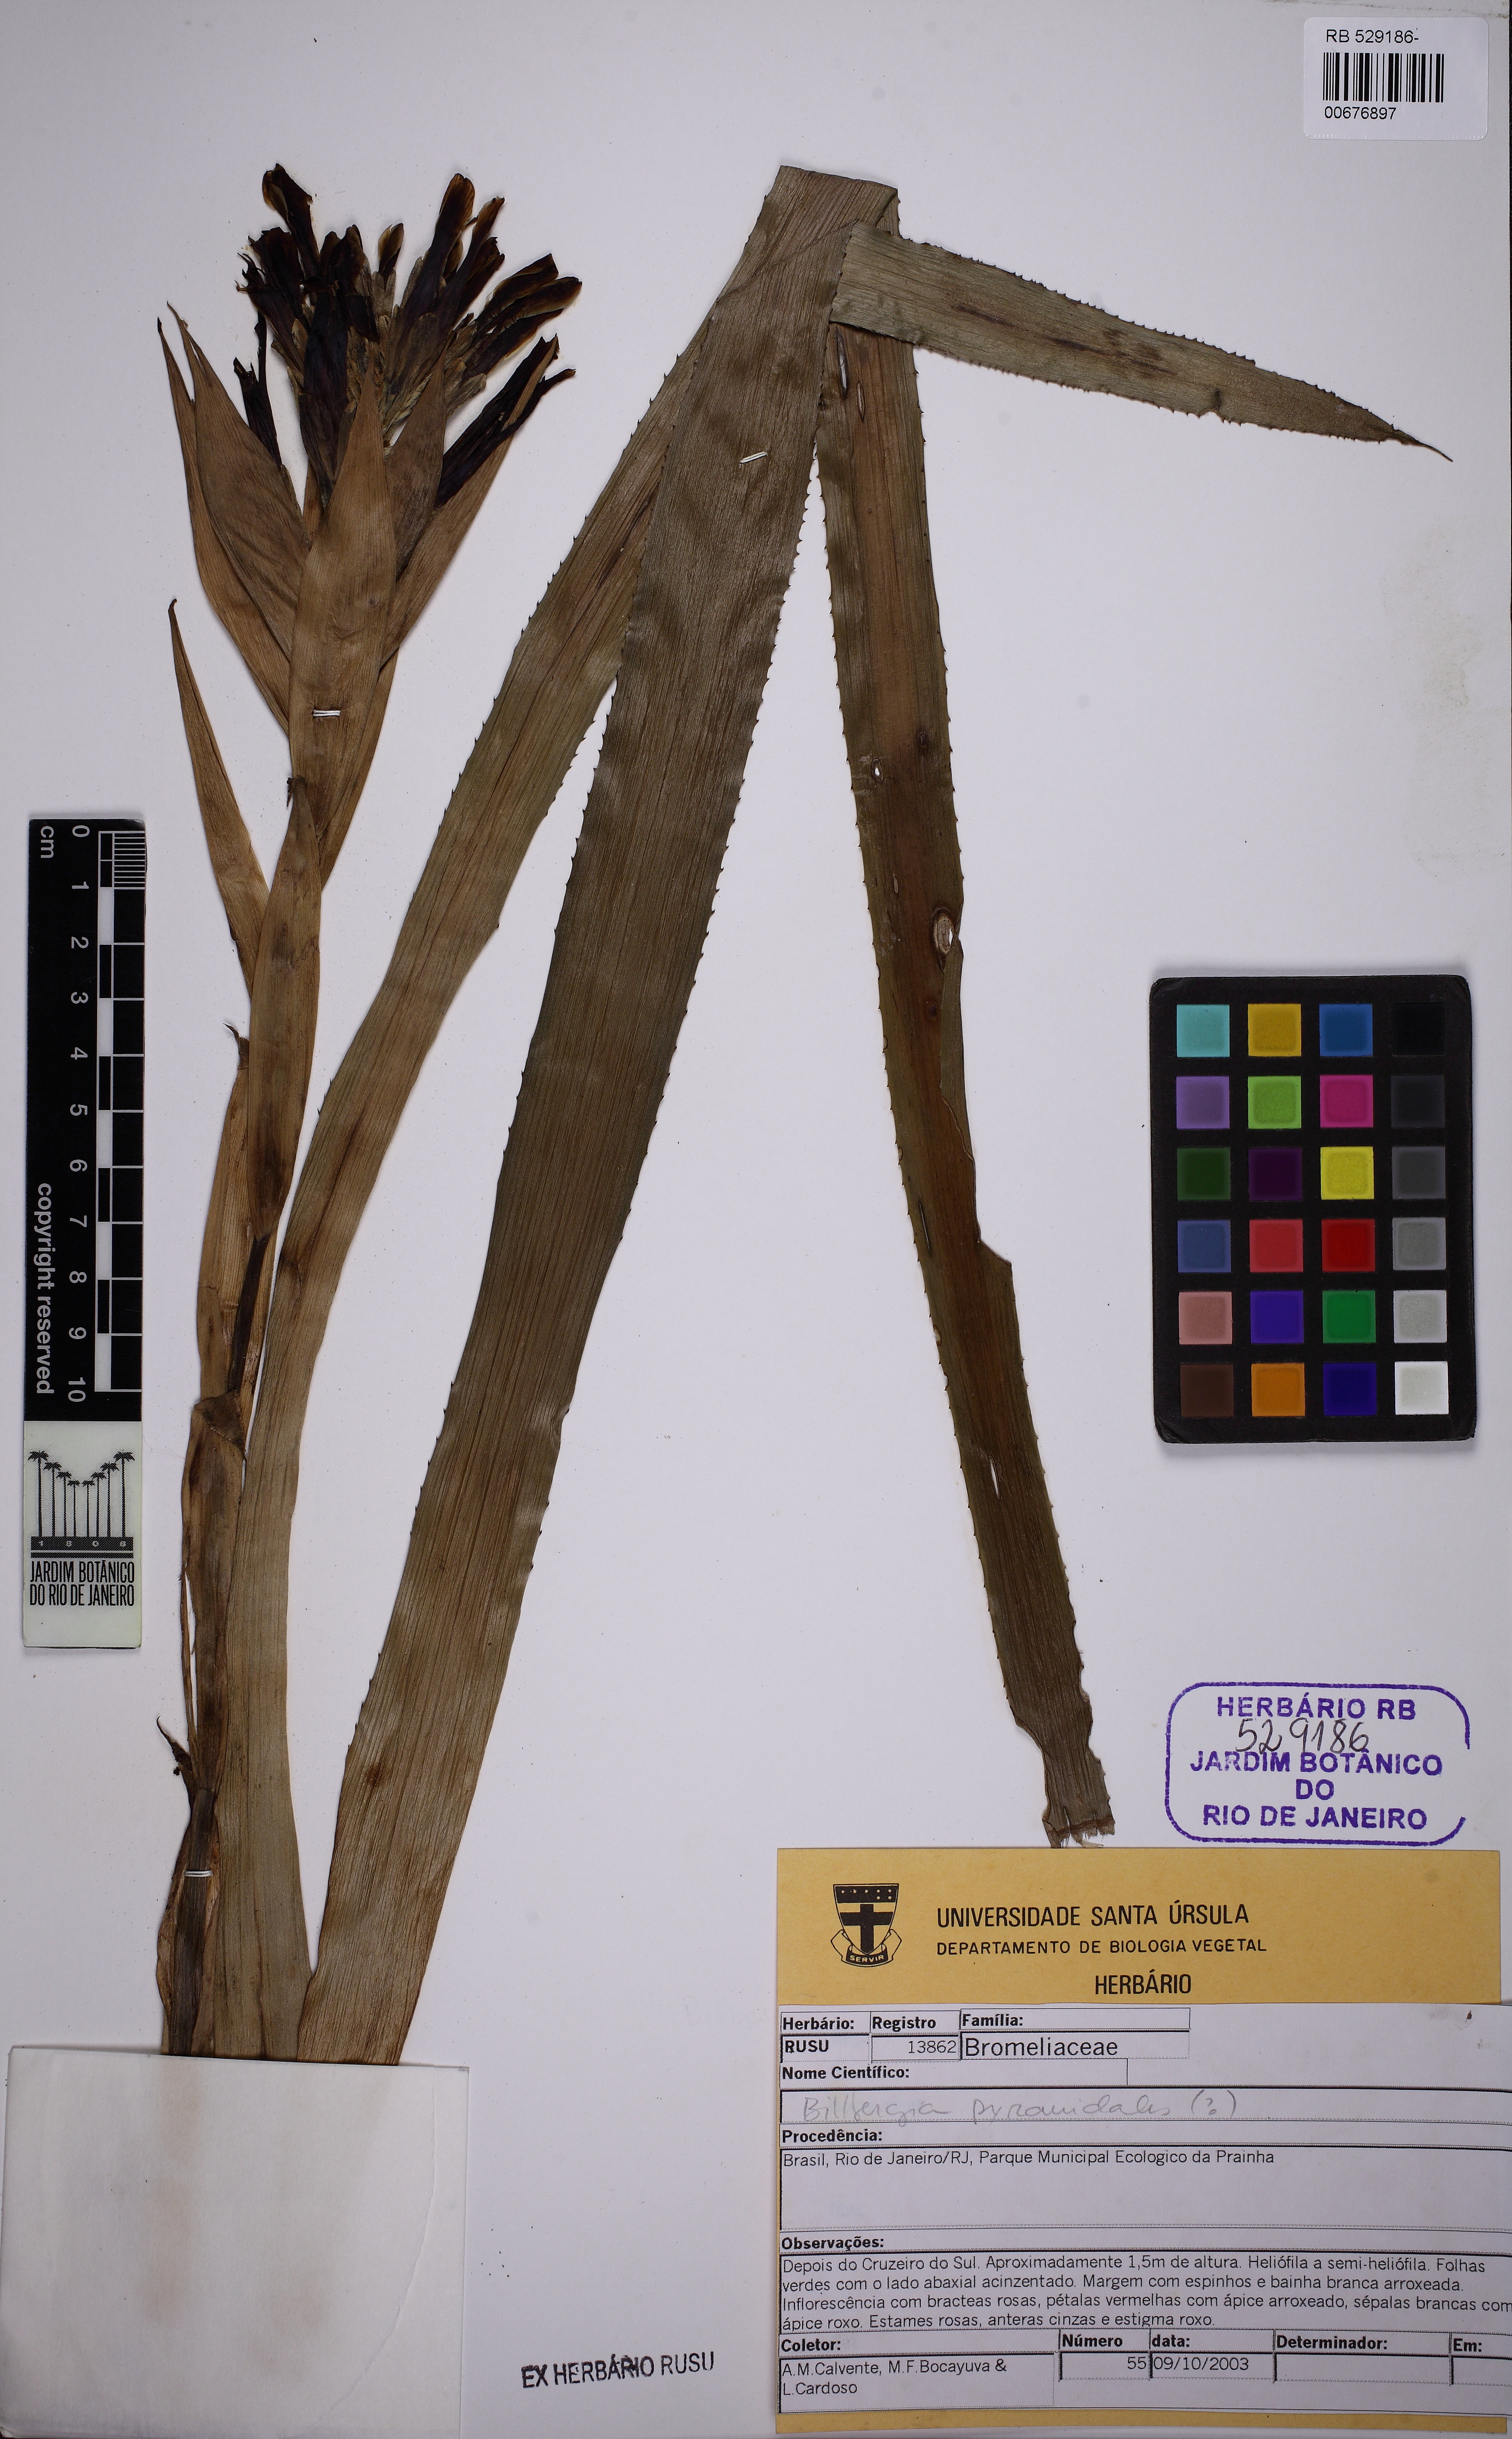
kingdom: Plantae
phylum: Tracheophyta
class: Liliopsida
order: Poales
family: Bromeliaceae
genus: Billbergia
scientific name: Billbergia pyramidalis
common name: Foolproofplant
